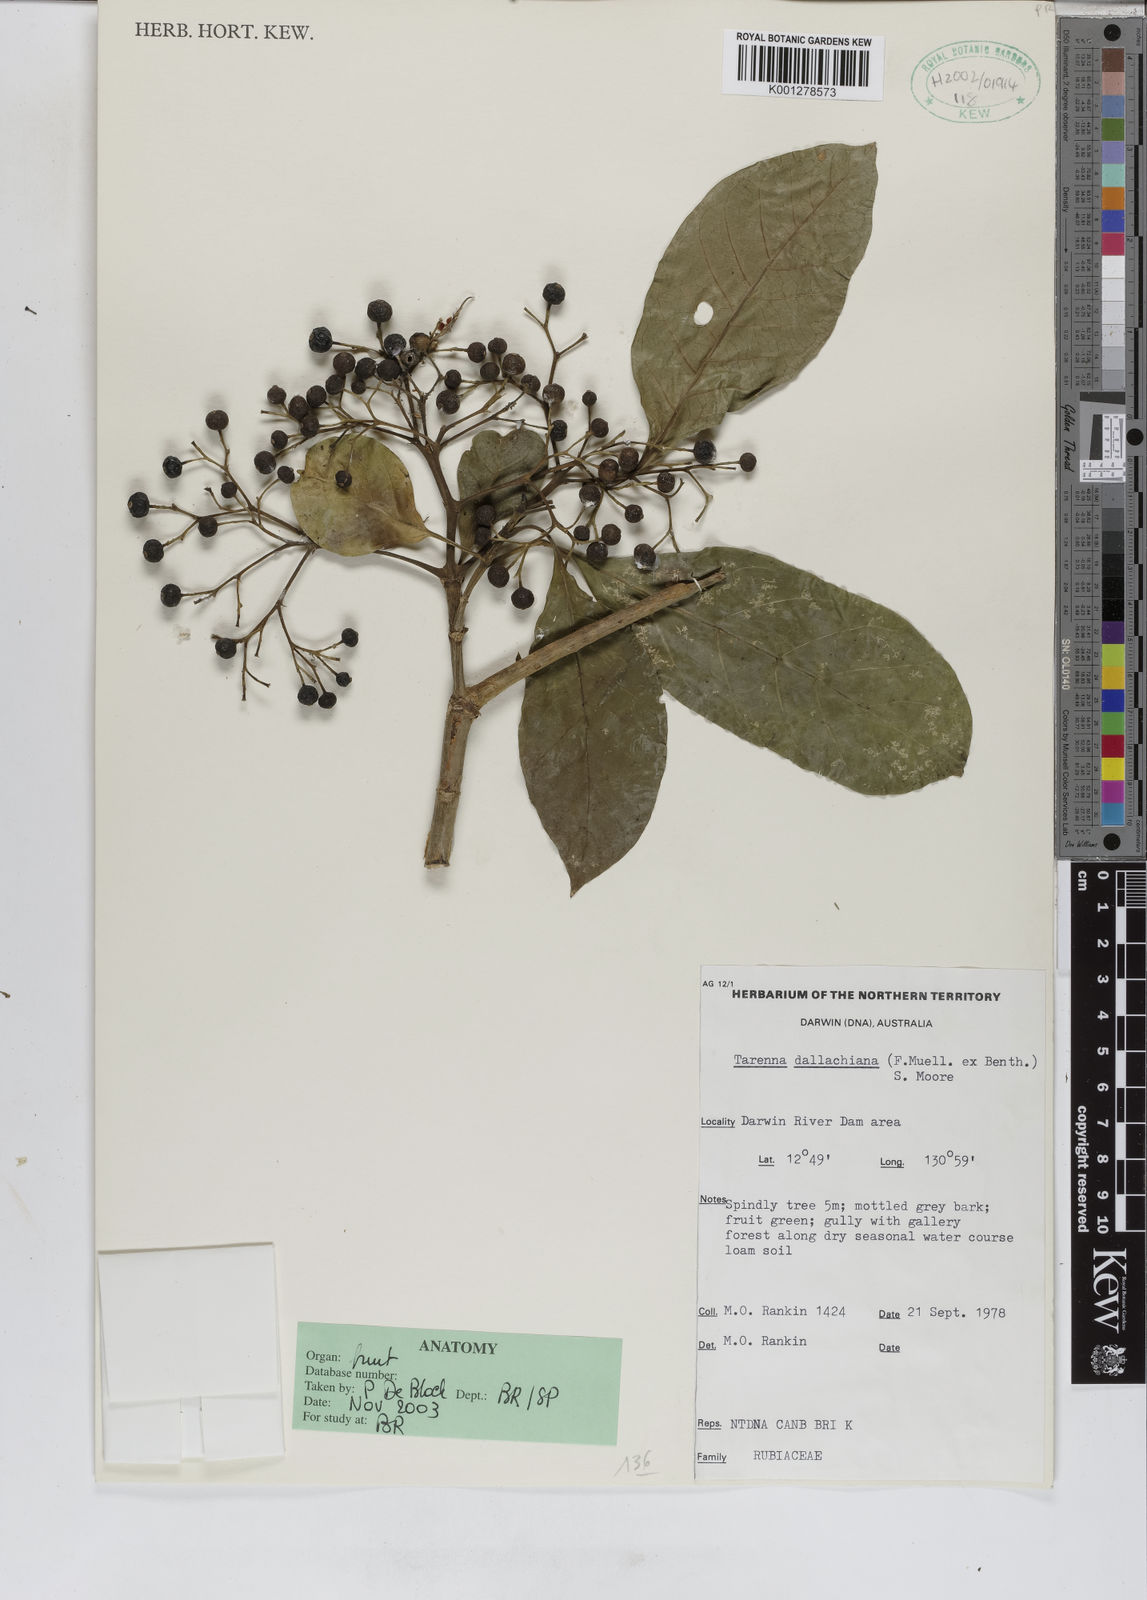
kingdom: Plantae
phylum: Tracheophyta
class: Magnoliopsida
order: Gentianales
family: Rubiaceae
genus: Tarenna
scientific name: Tarenna dallachiana
